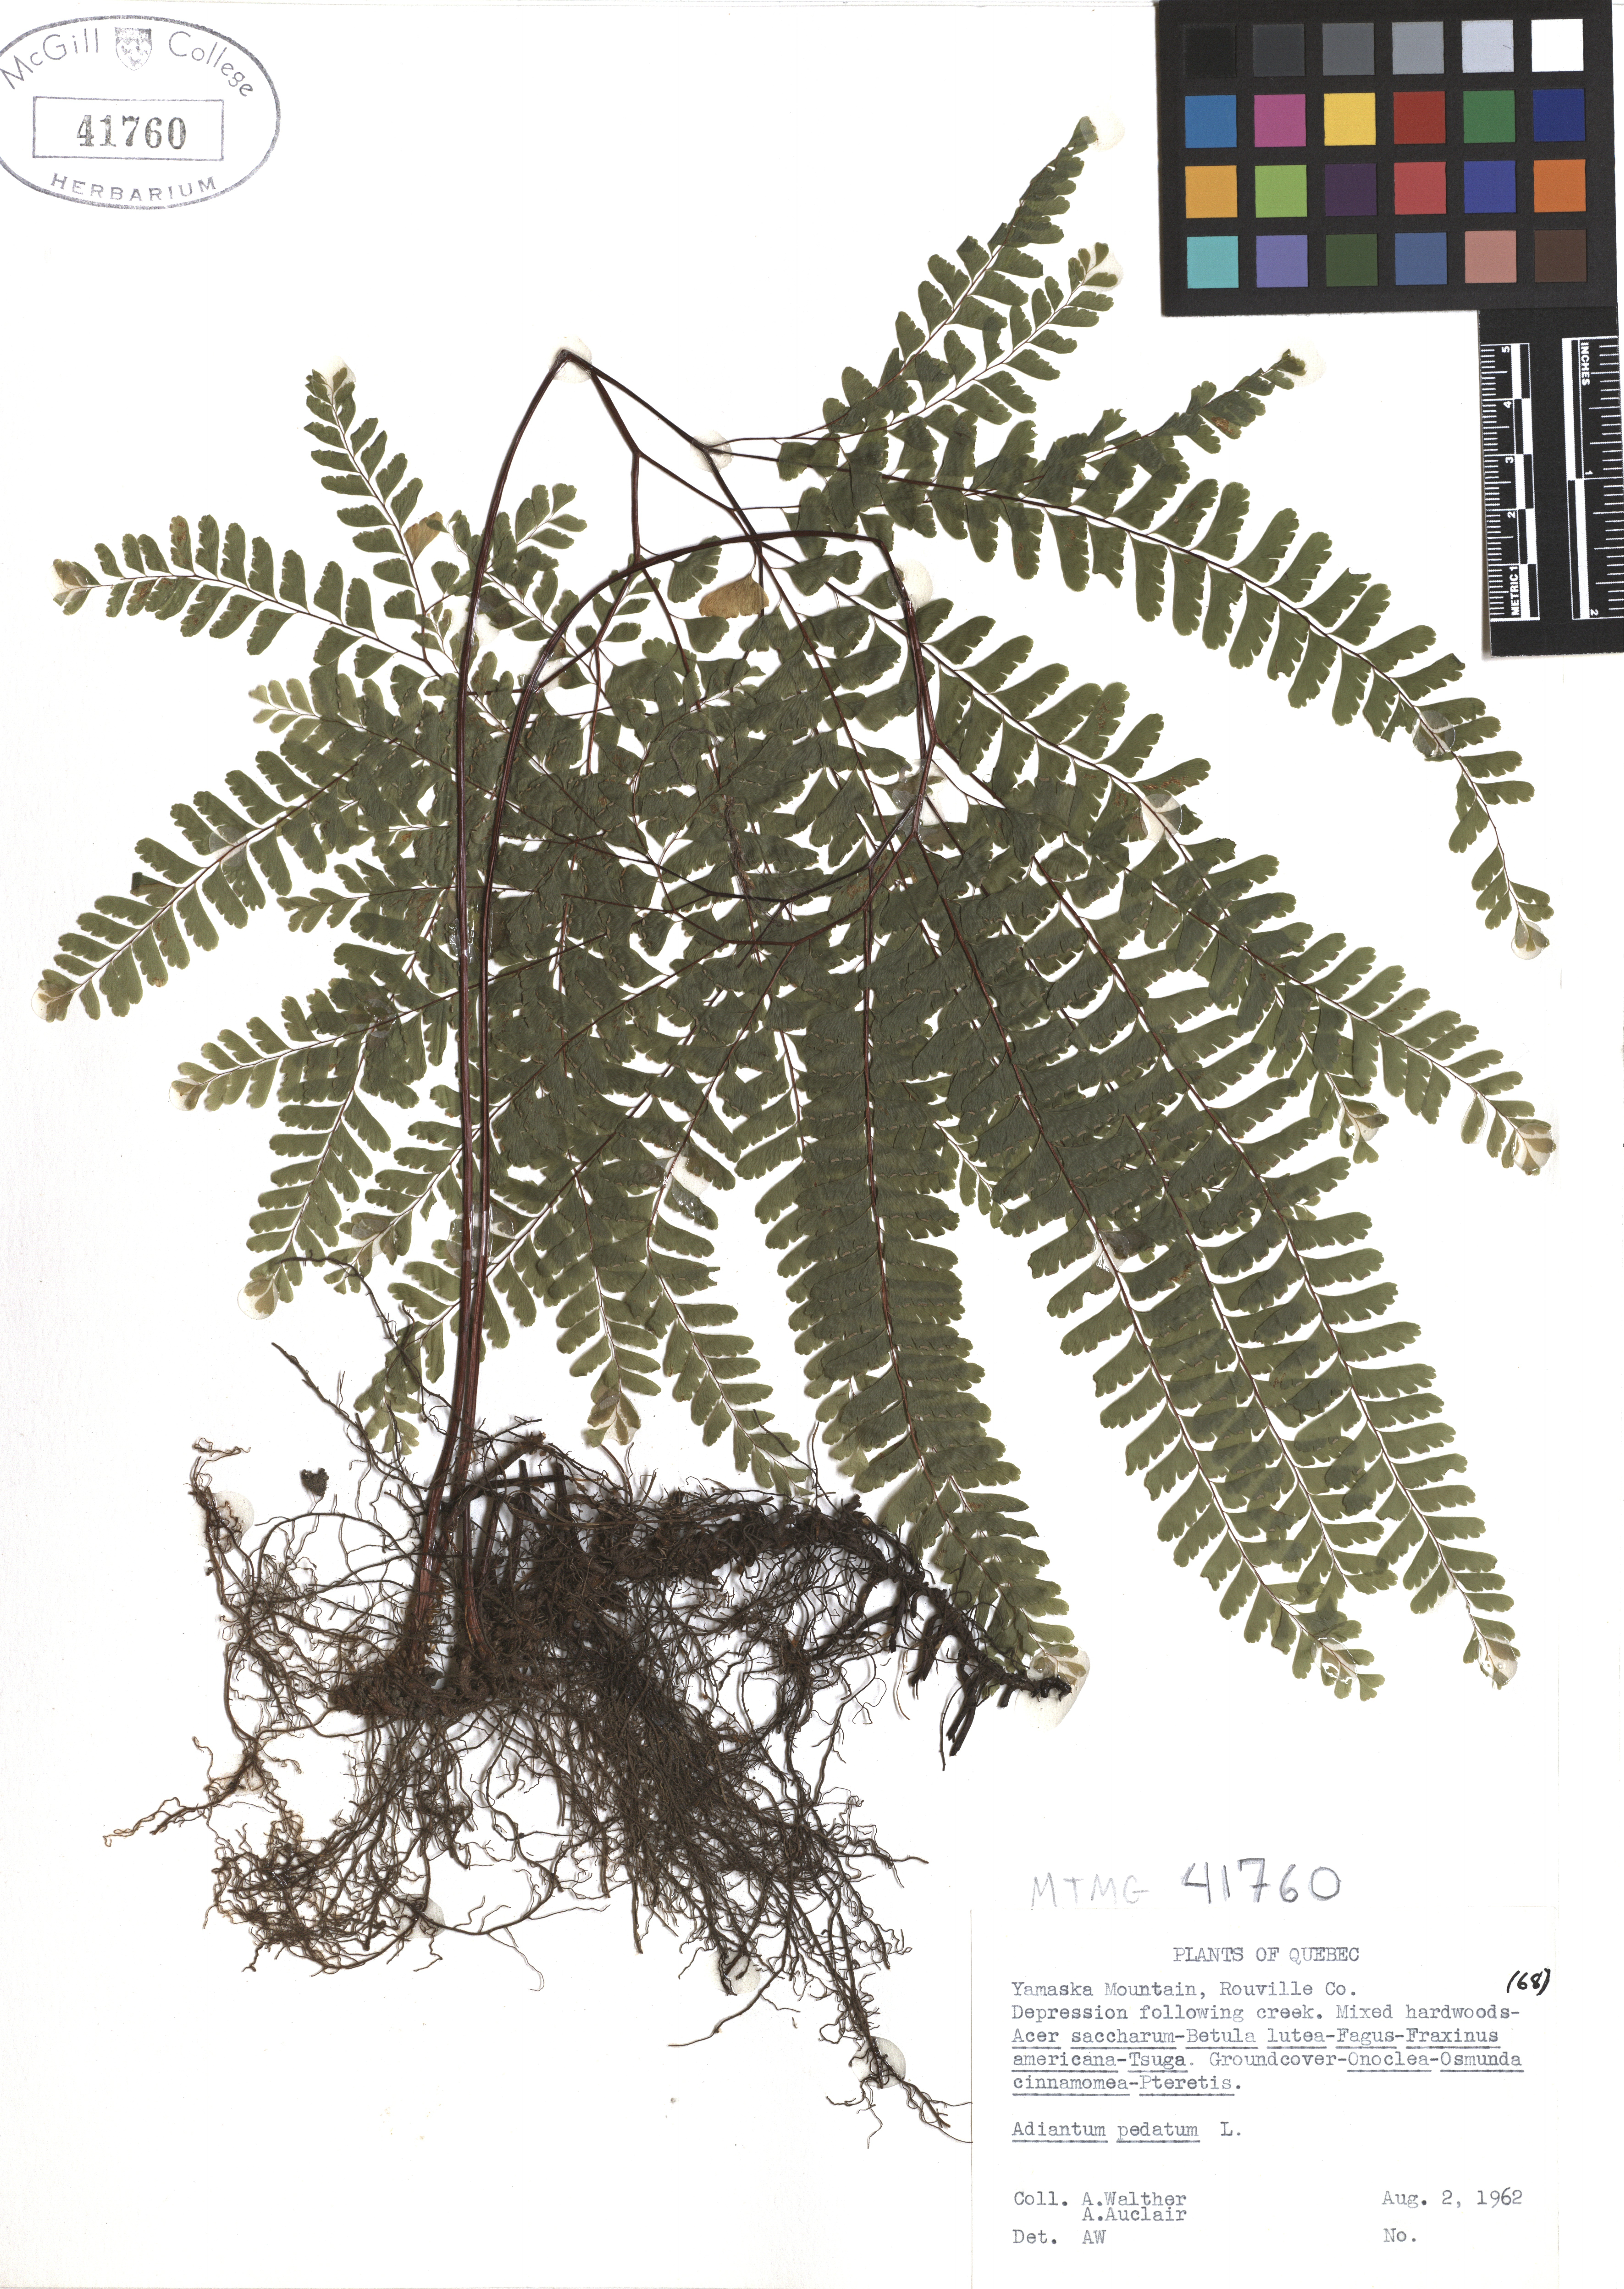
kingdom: Plantae
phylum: Tracheophyta
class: Polypodiopsida
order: Polypodiales
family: Pteridaceae
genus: Adiantum
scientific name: Adiantum pedatum
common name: Five-finger fern
